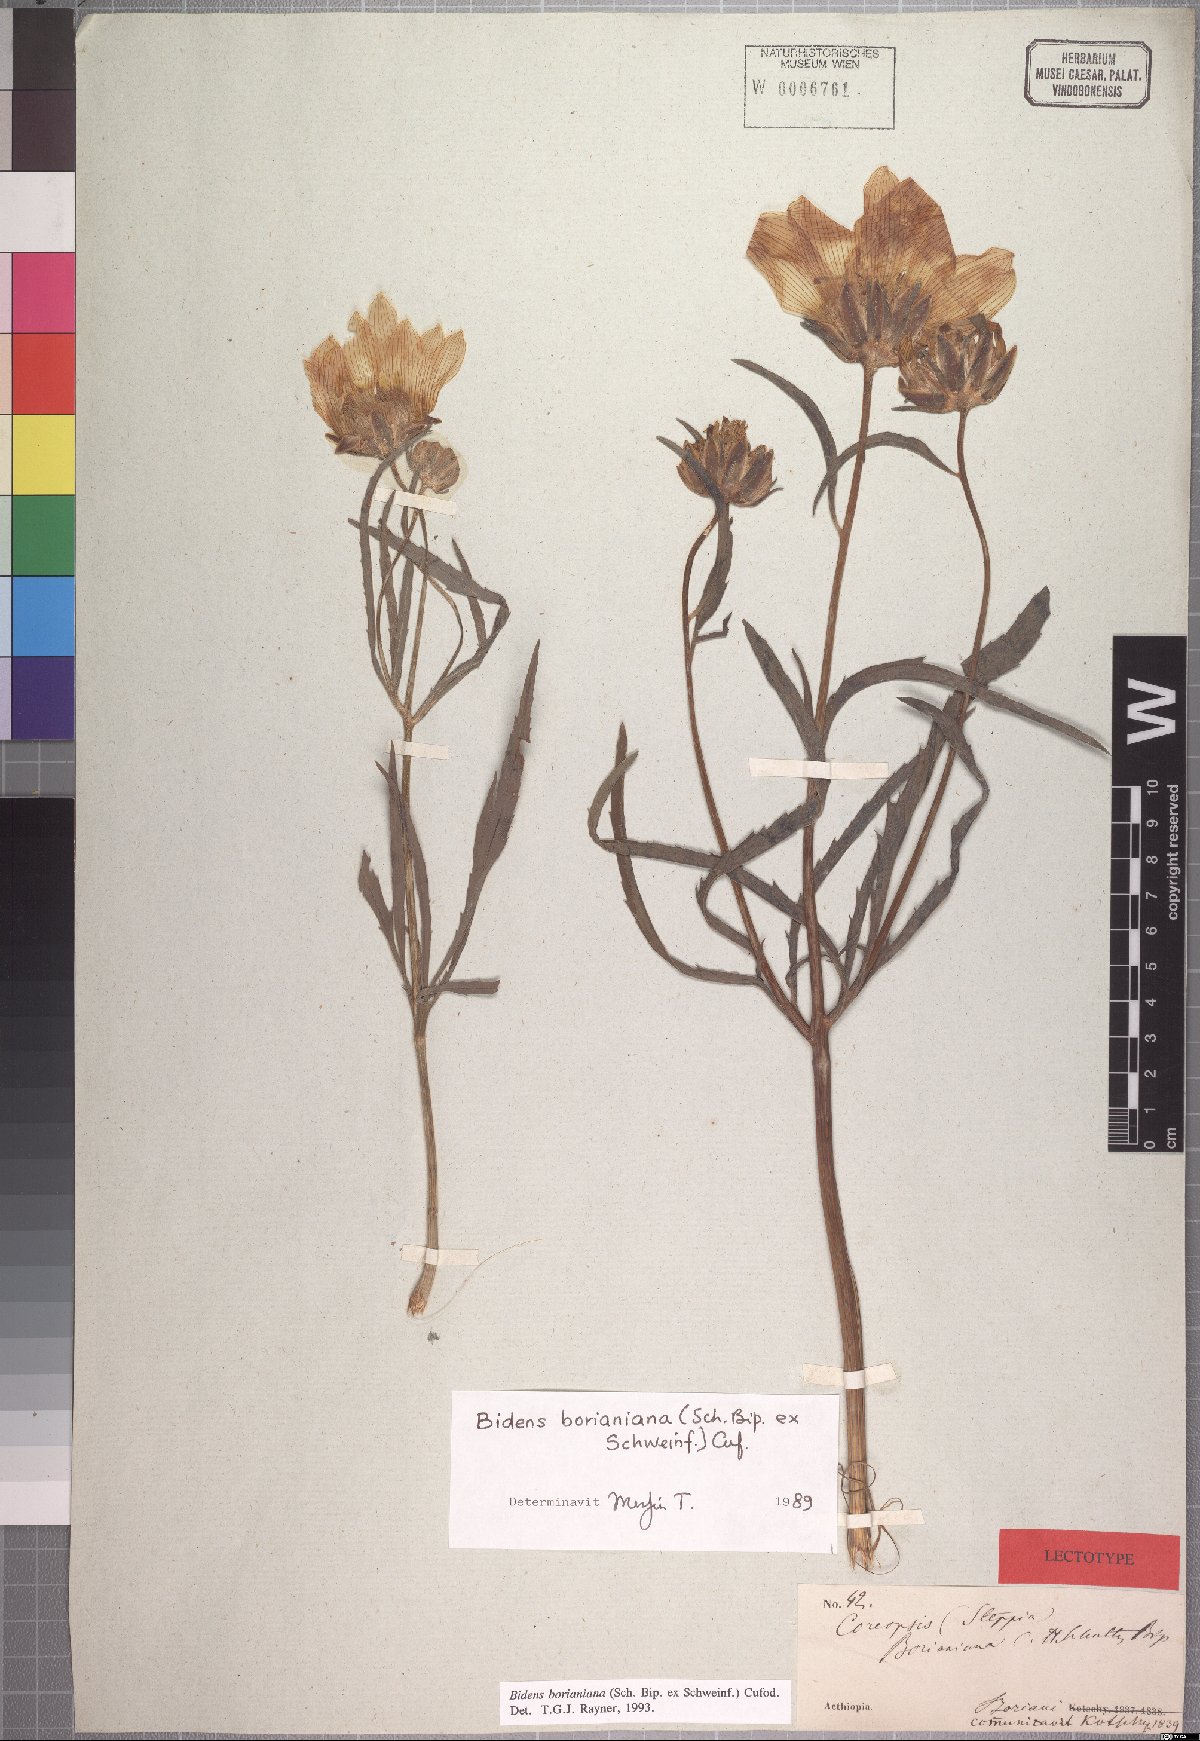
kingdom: Plantae
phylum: Tracheophyta
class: Magnoliopsida
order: Asterales
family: Asteraceae
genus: Bidens
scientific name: Bidens borianiana
